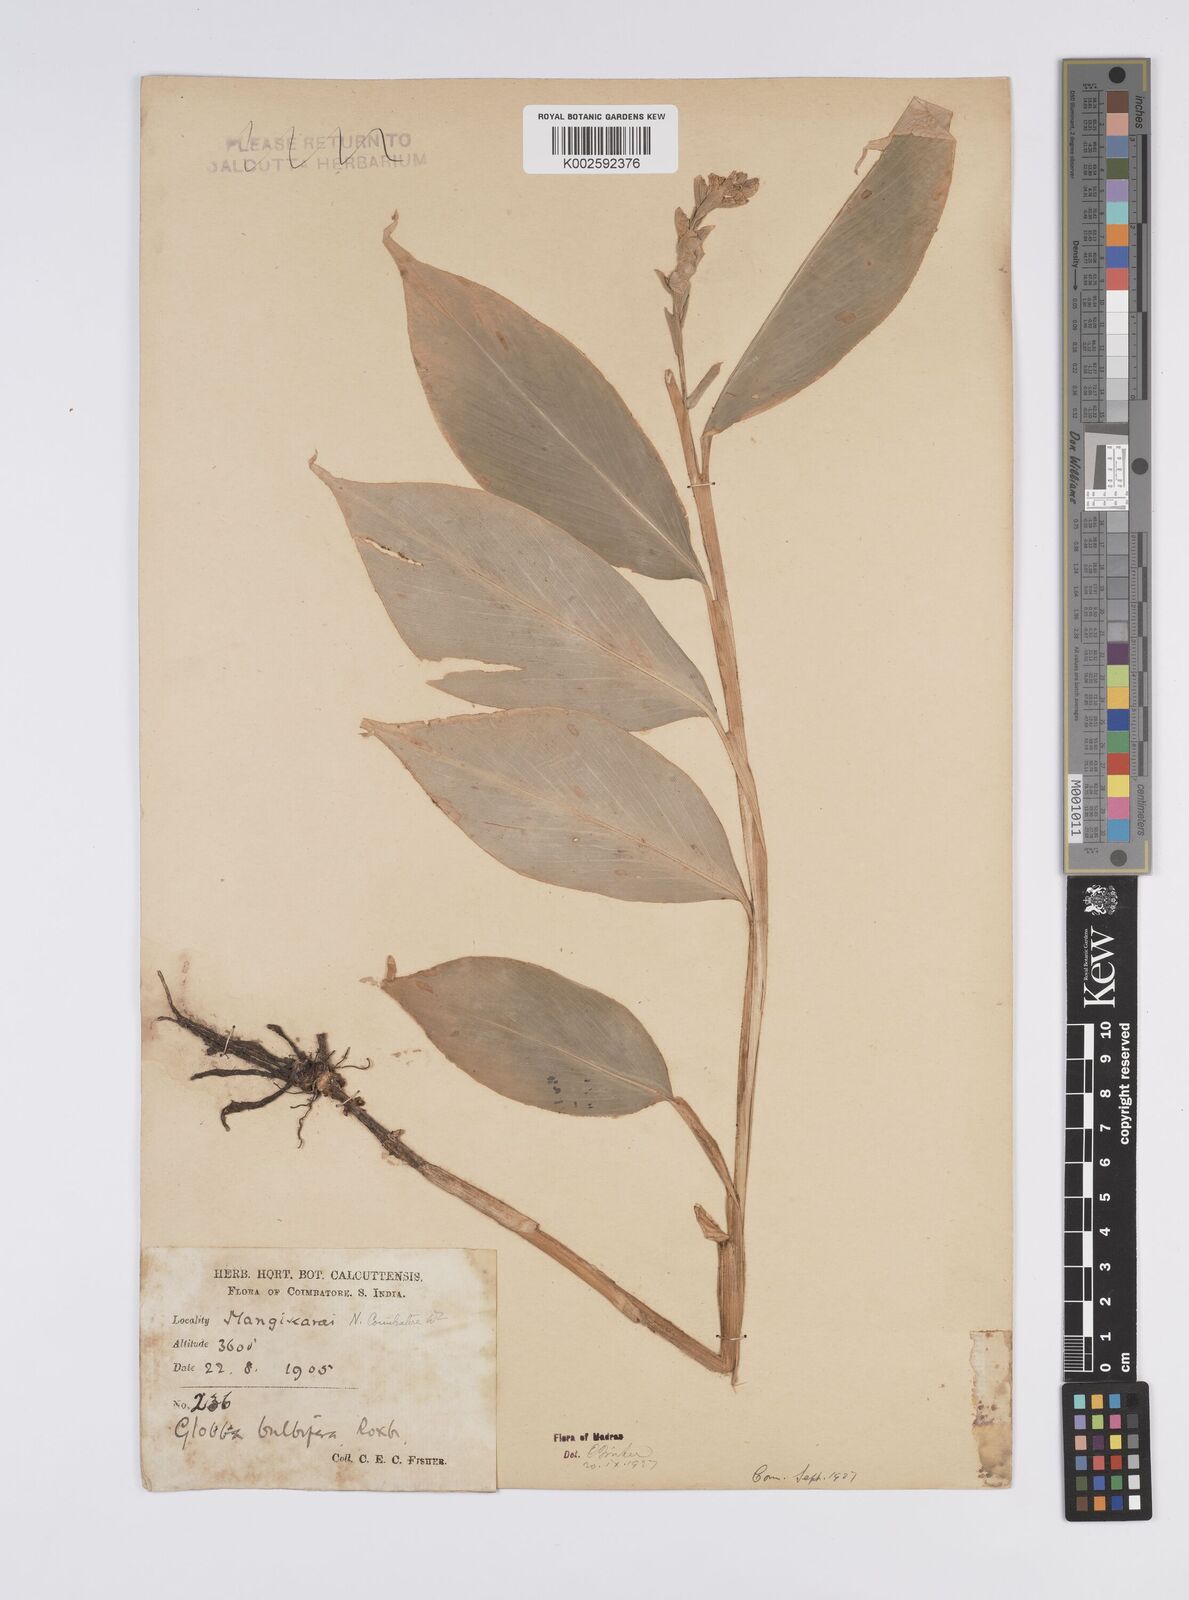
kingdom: Plantae
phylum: Tracheophyta
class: Liliopsida
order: Zingiberales
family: Zingiberaceae
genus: Globba
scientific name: Globba marantina
